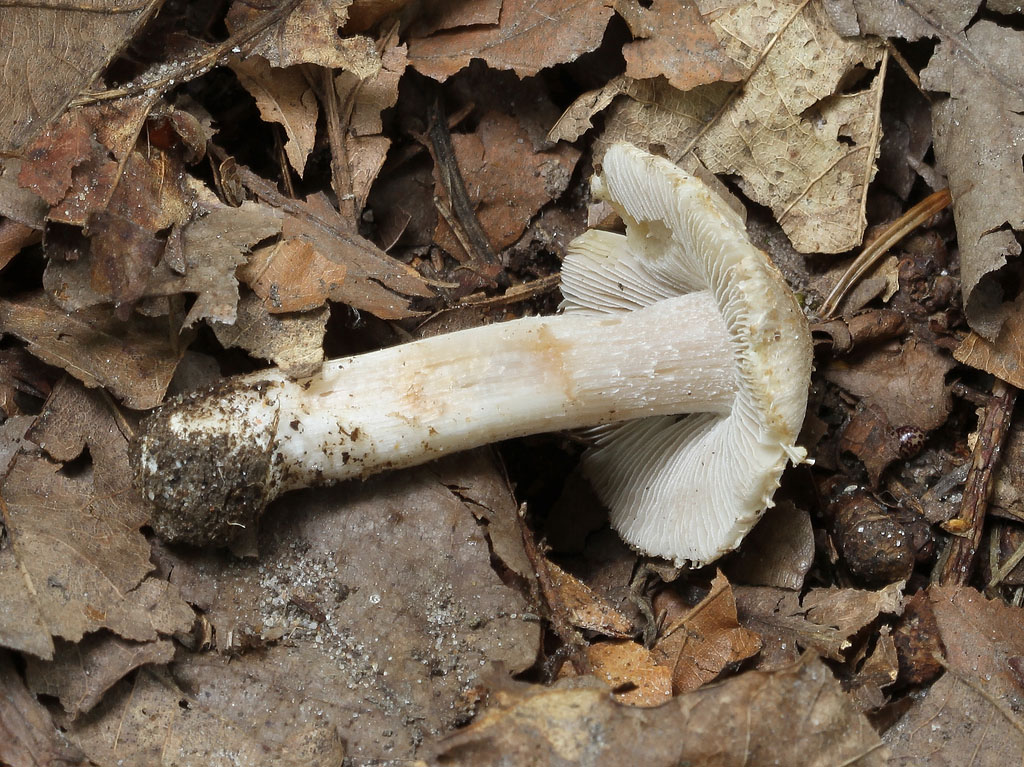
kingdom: Fungi
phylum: Basidiomycota
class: Agaricomycetes
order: Agaricales
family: Inocybaceae
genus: Pseudosperma
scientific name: Pseudosperma obsoletum
